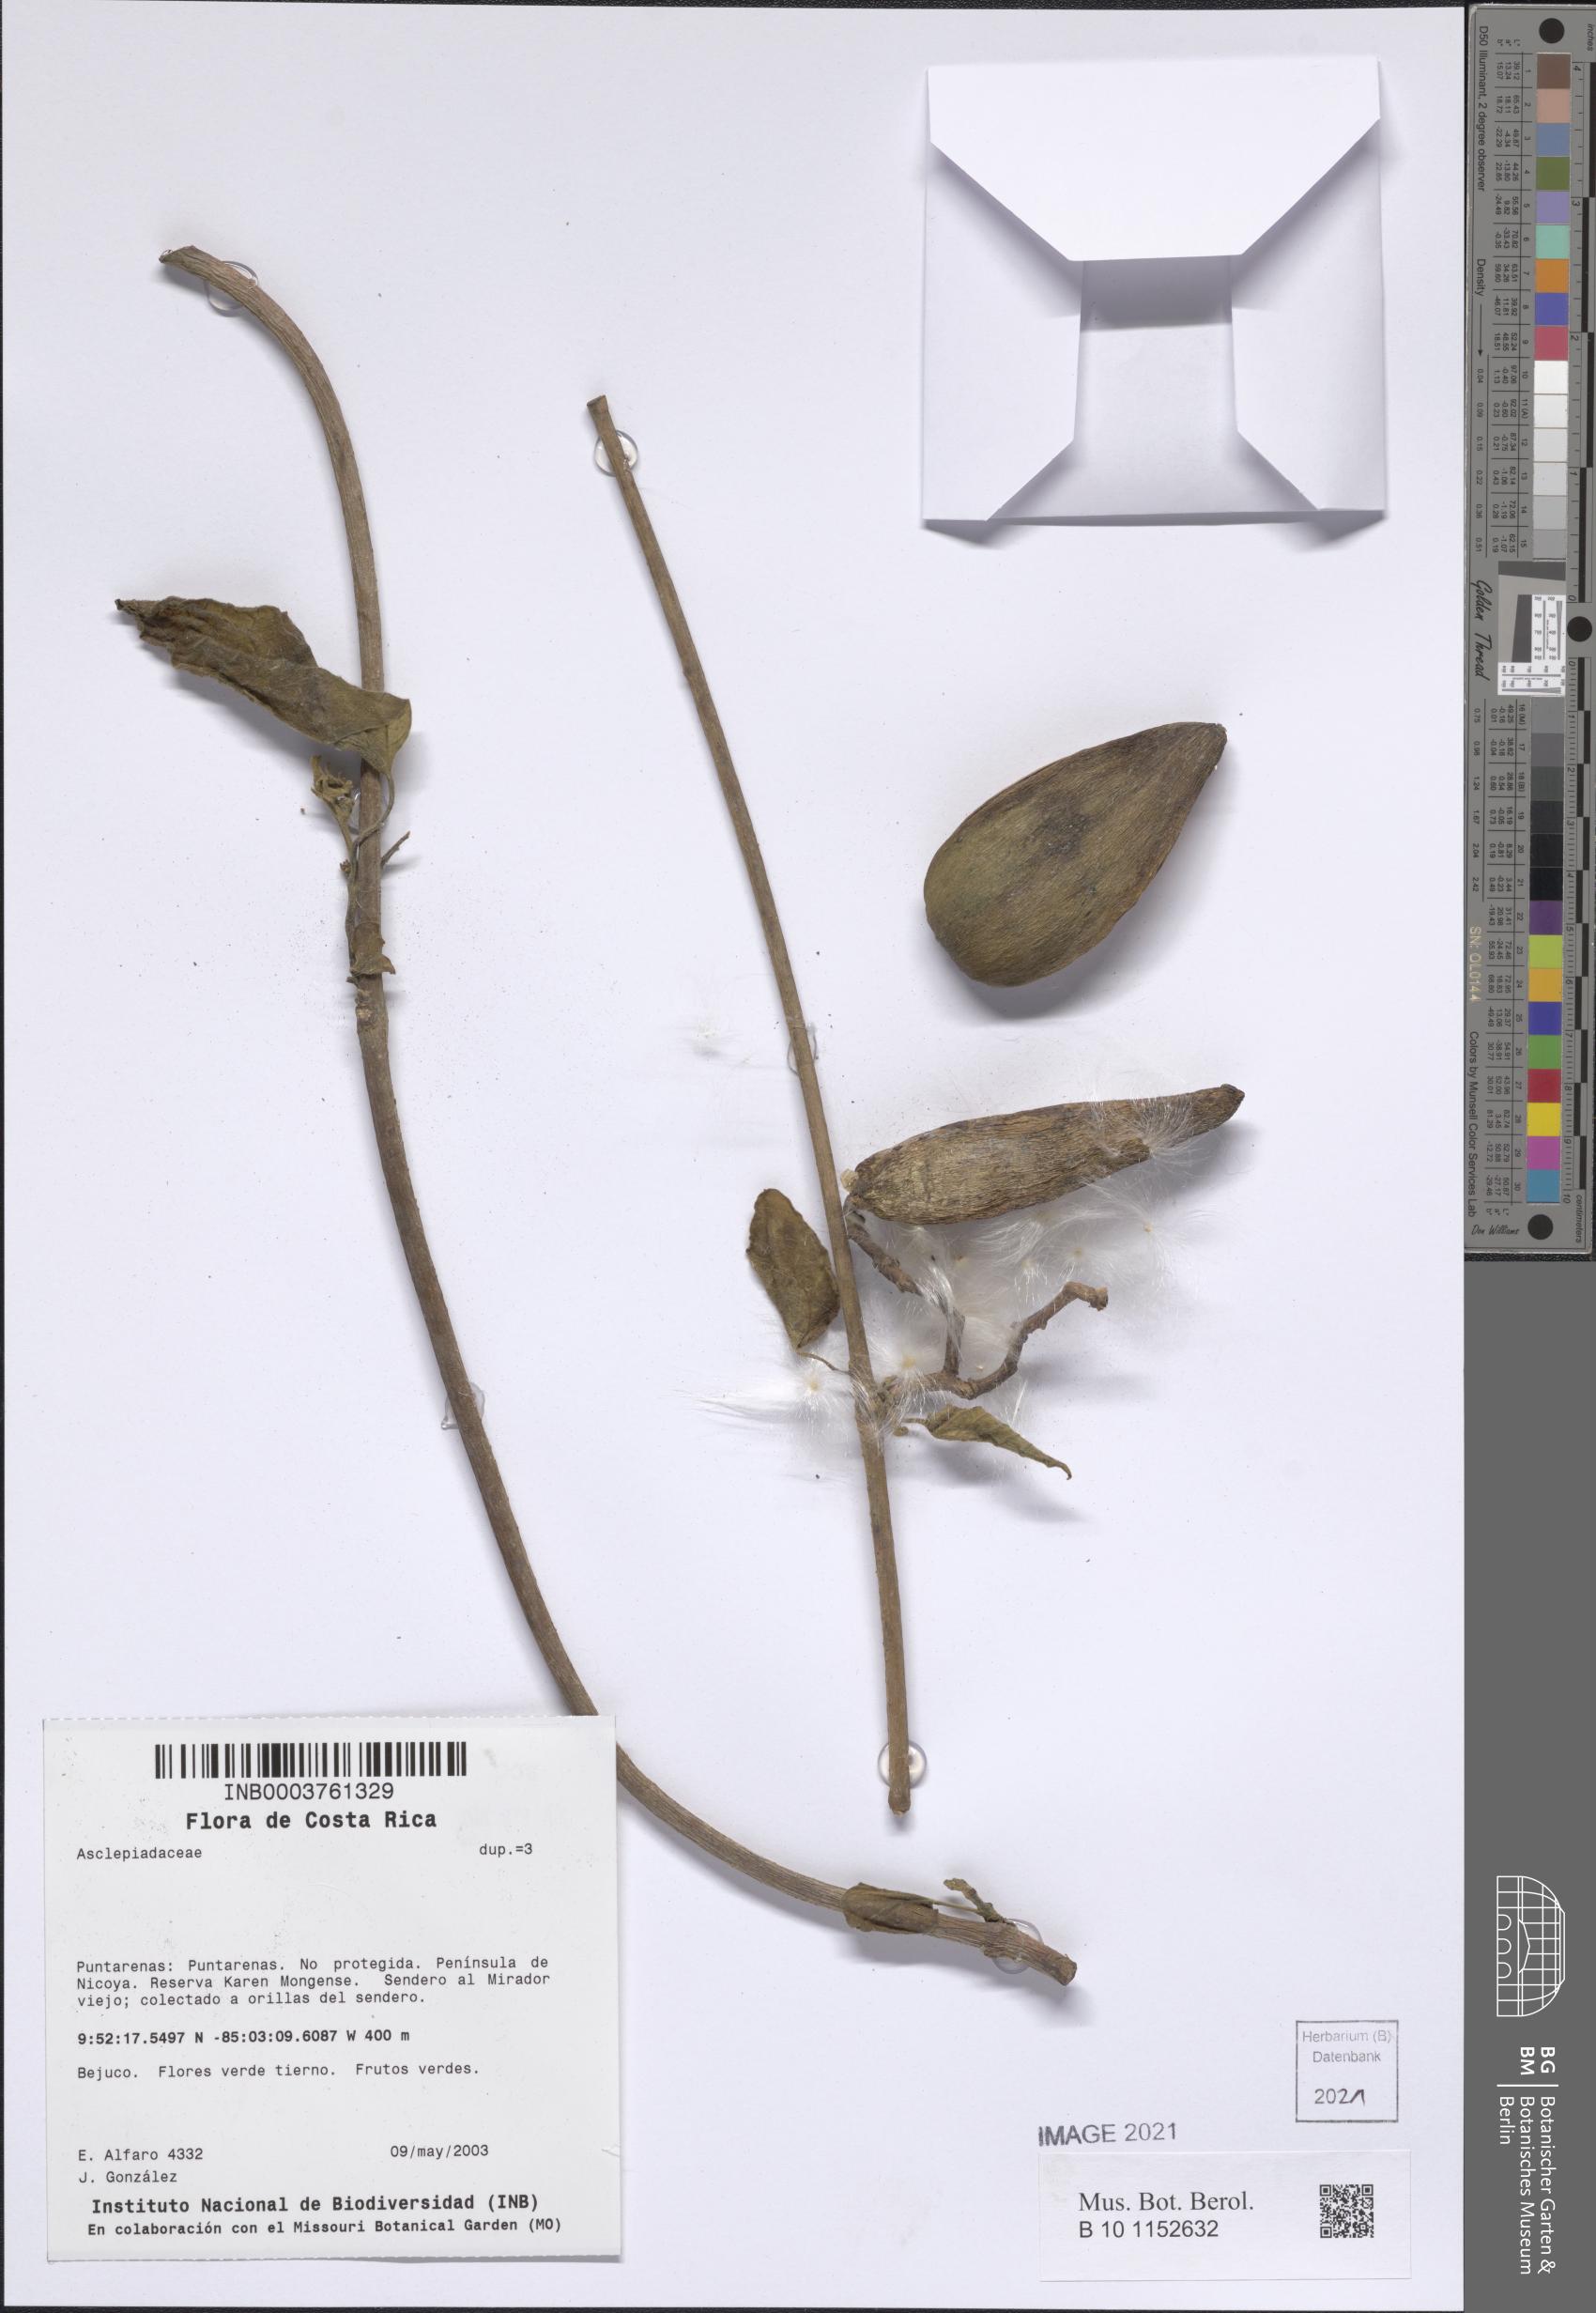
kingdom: Plantae
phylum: Tracheophyta
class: Magnoliopsida
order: Gentianales
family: Apocynaceae
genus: Ruehssia
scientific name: Ruehssia gualanensis
